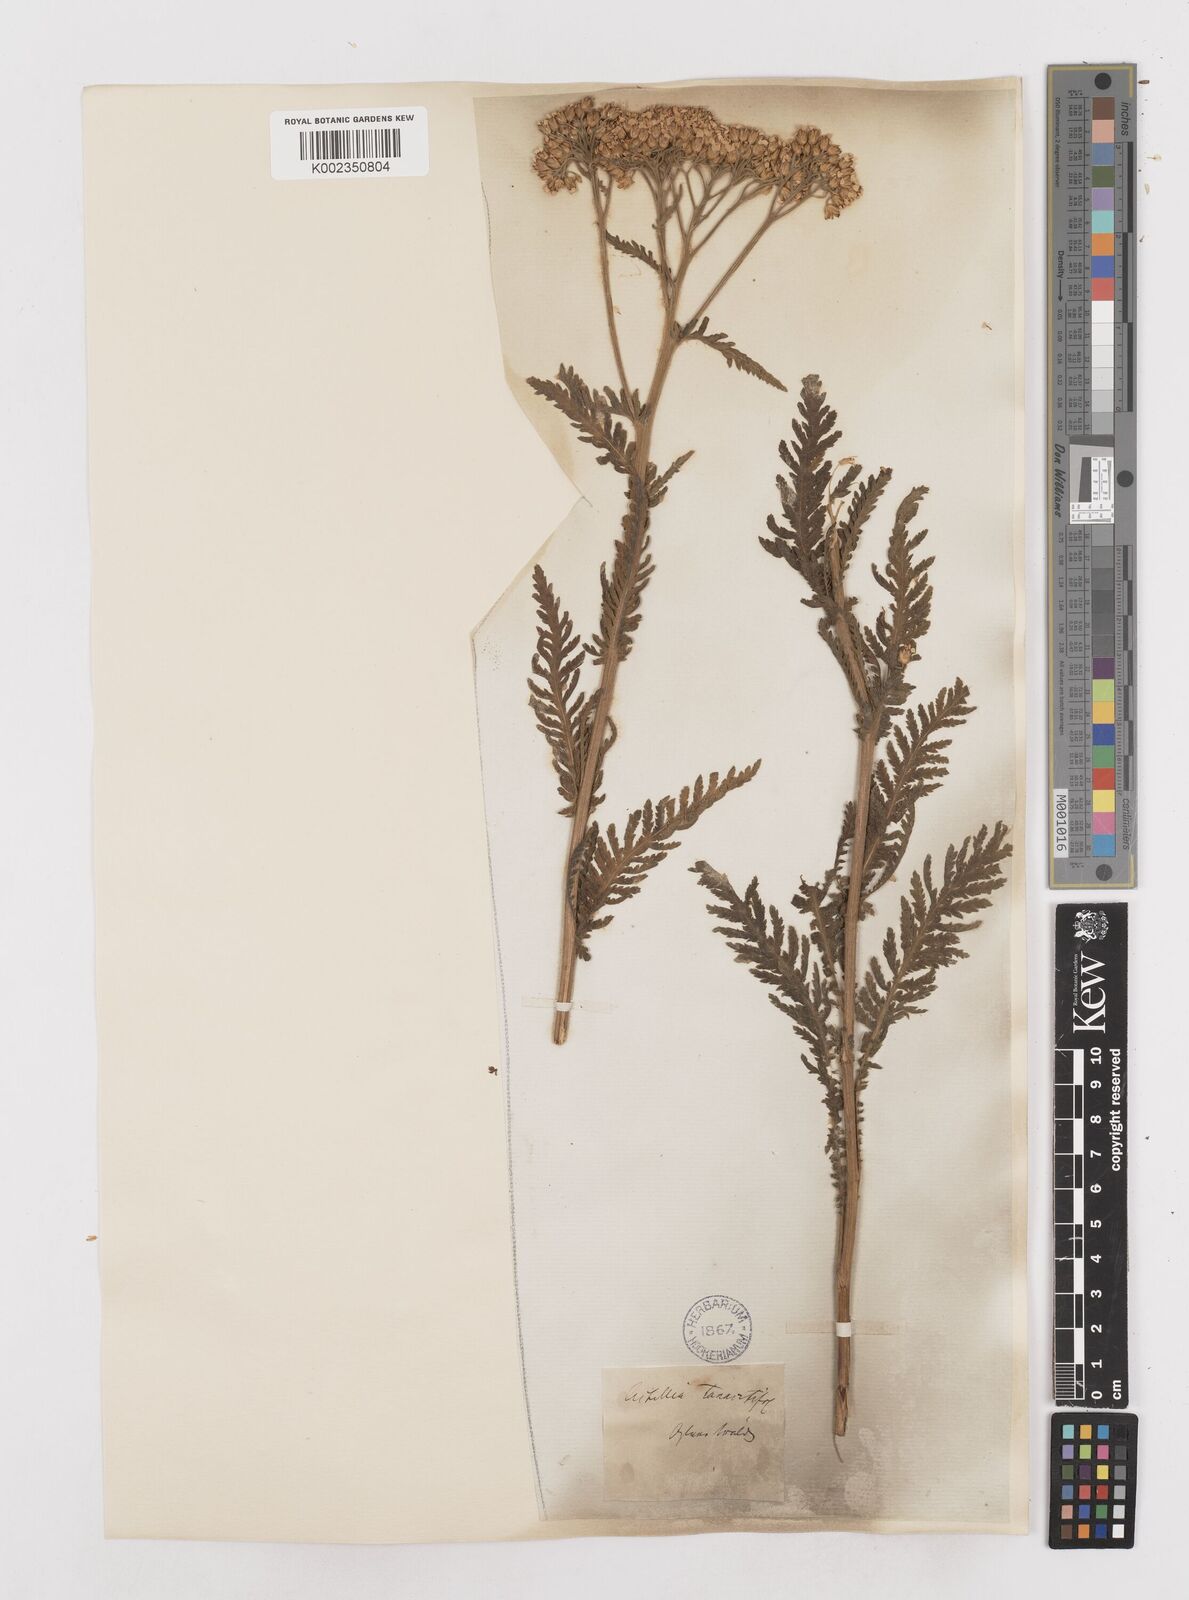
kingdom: Plantae
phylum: Tracheophyta
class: Magnoliopsida
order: Asterales
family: Asteraceae
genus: Achillea
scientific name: Achillea distans
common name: Tall yarrow
